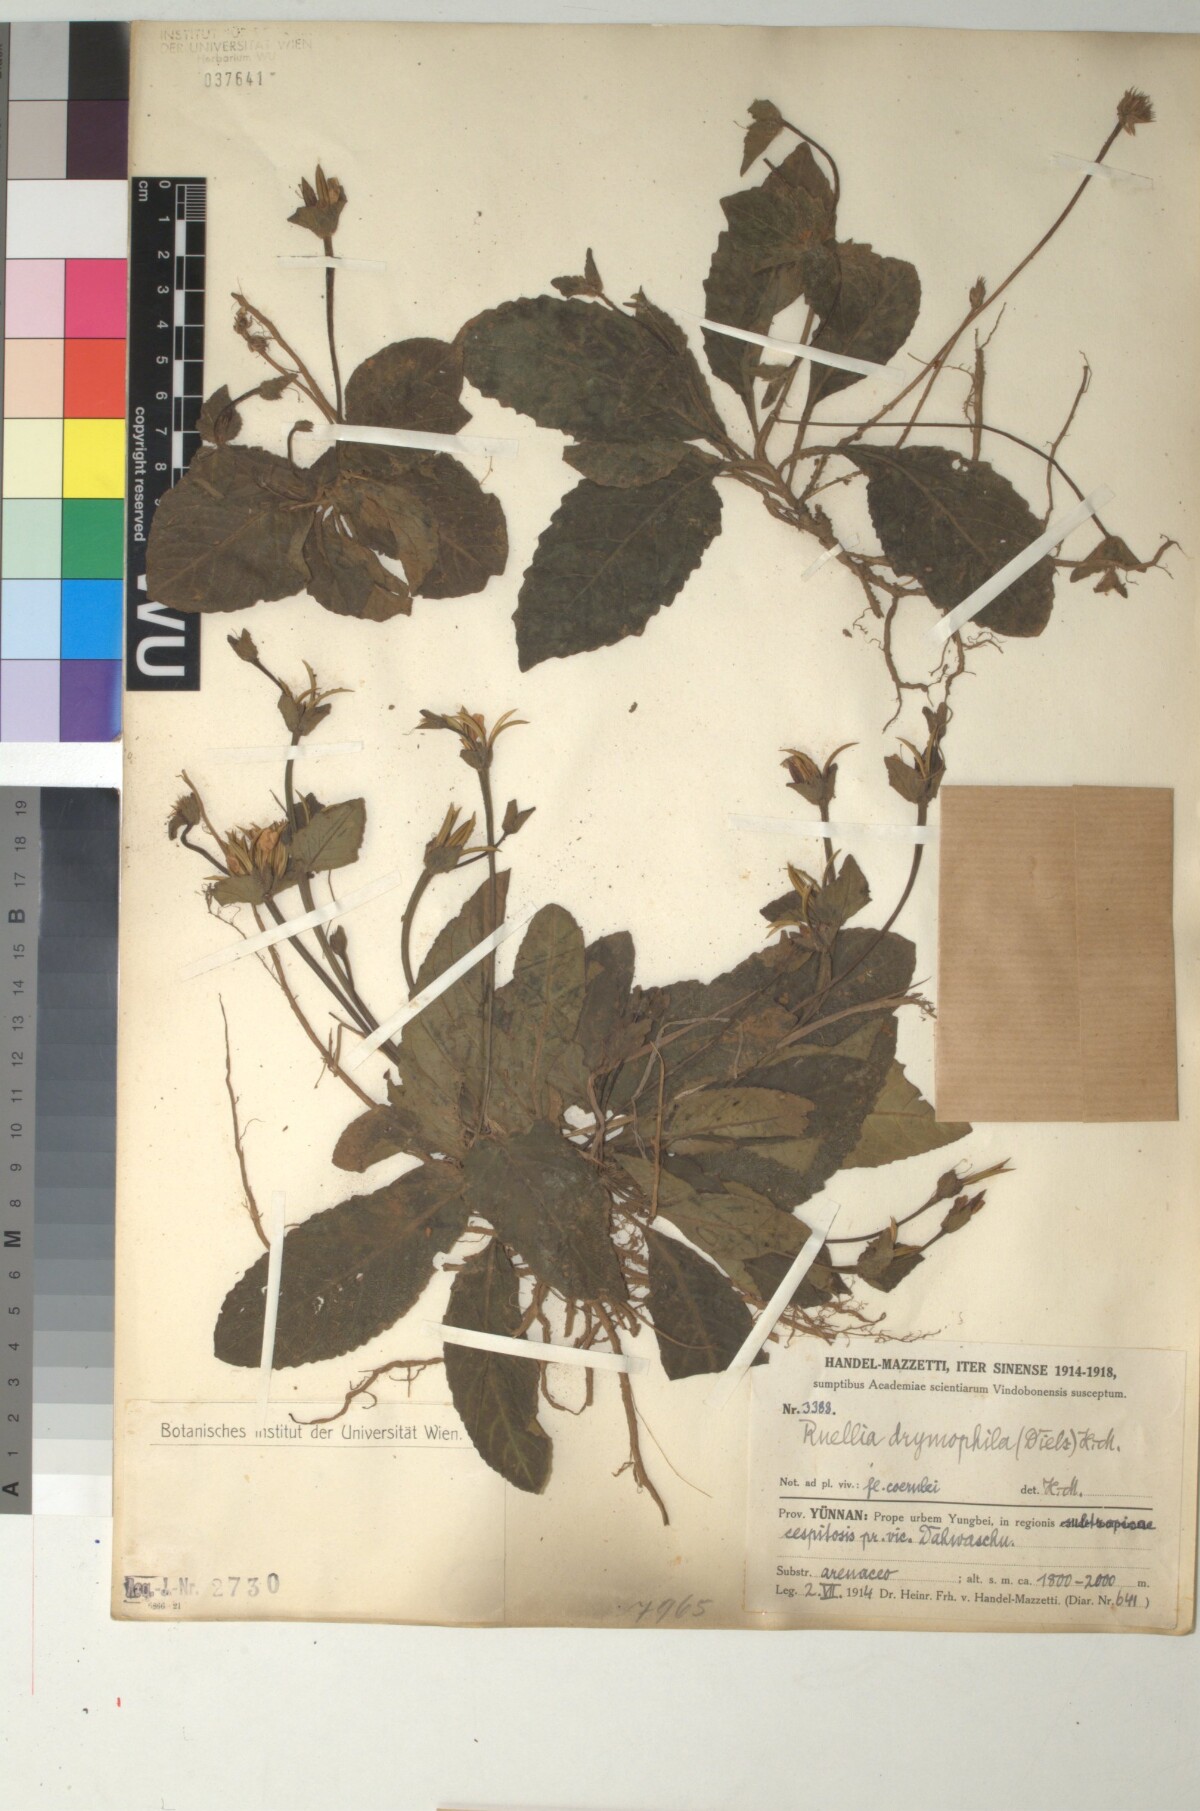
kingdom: Plantae
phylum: Tracheophyta
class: Magnoliopsida
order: Lamiales
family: Acanthaceae
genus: Pararuellia
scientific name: Pararuellia
